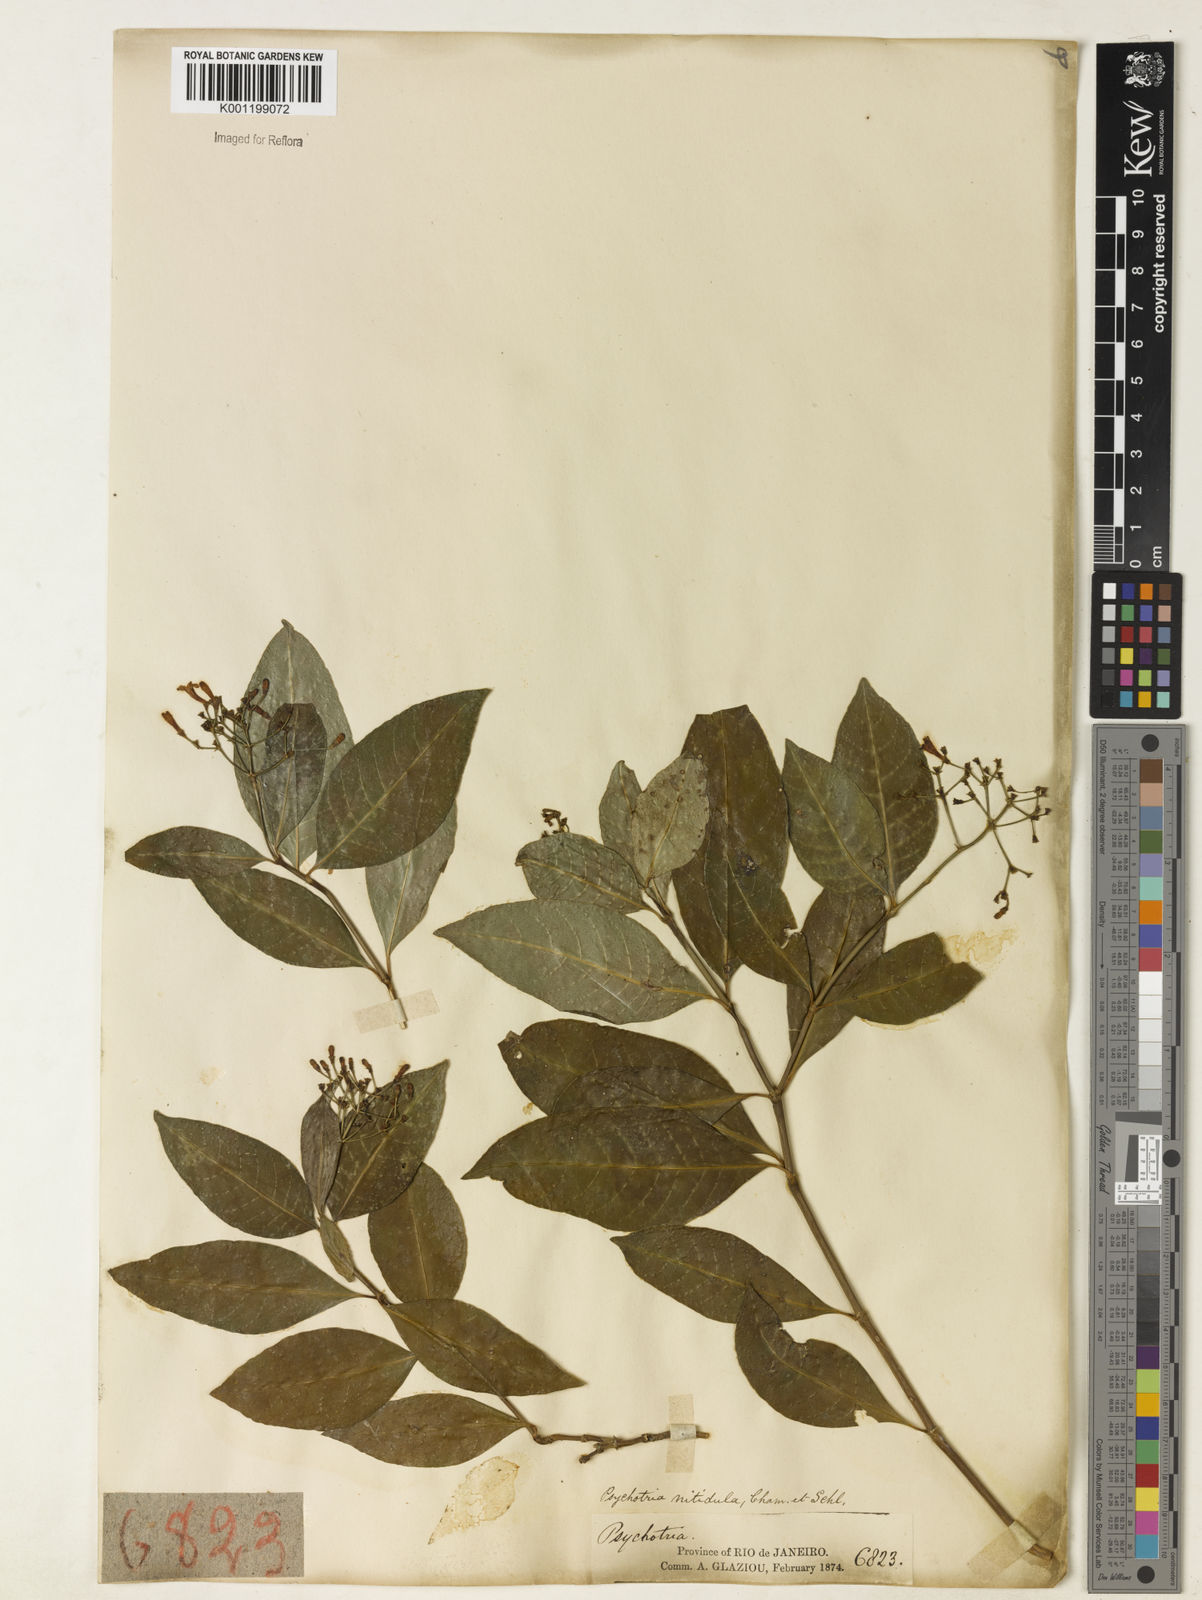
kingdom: Plantae
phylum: Tracheophyta
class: Magnoliopsida
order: Gentianales
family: Rubiaceae
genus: Psychotria
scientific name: Psychotria leiocarpa
